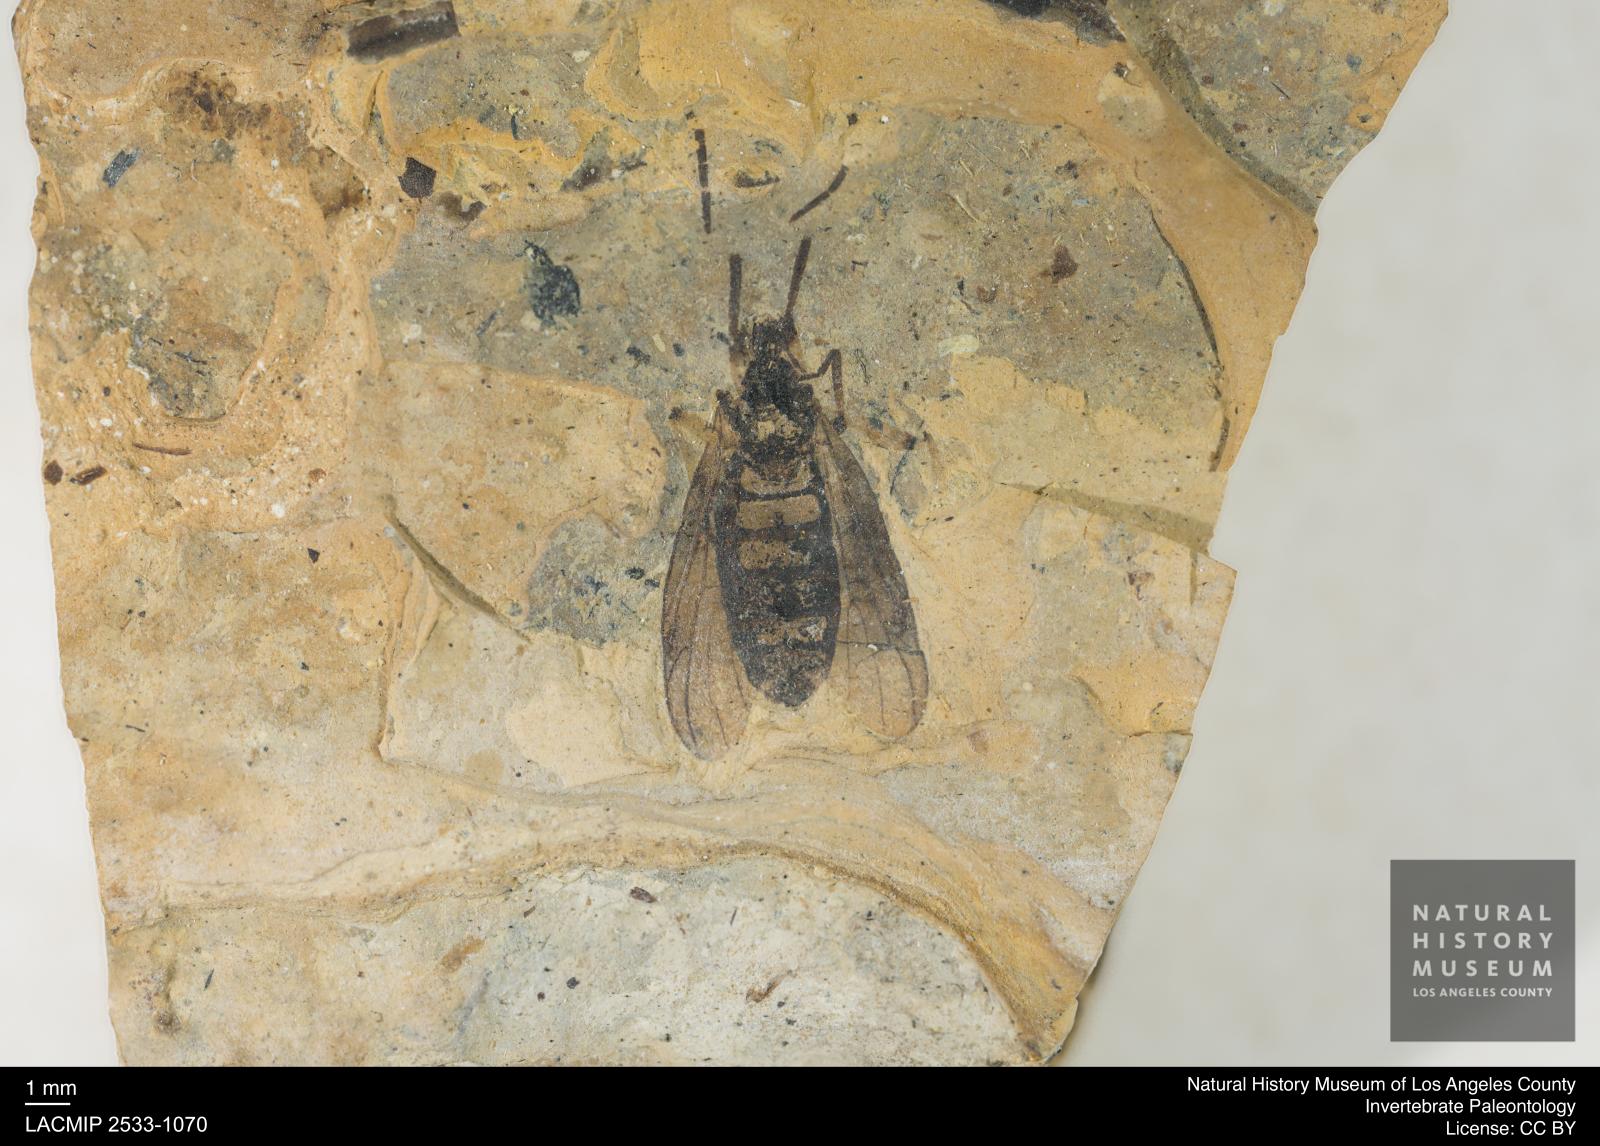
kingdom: Animalia
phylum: Arthropoda
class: Insecta
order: Diptera
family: Bibionidae
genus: Plecia
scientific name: Plecia hypogaea
